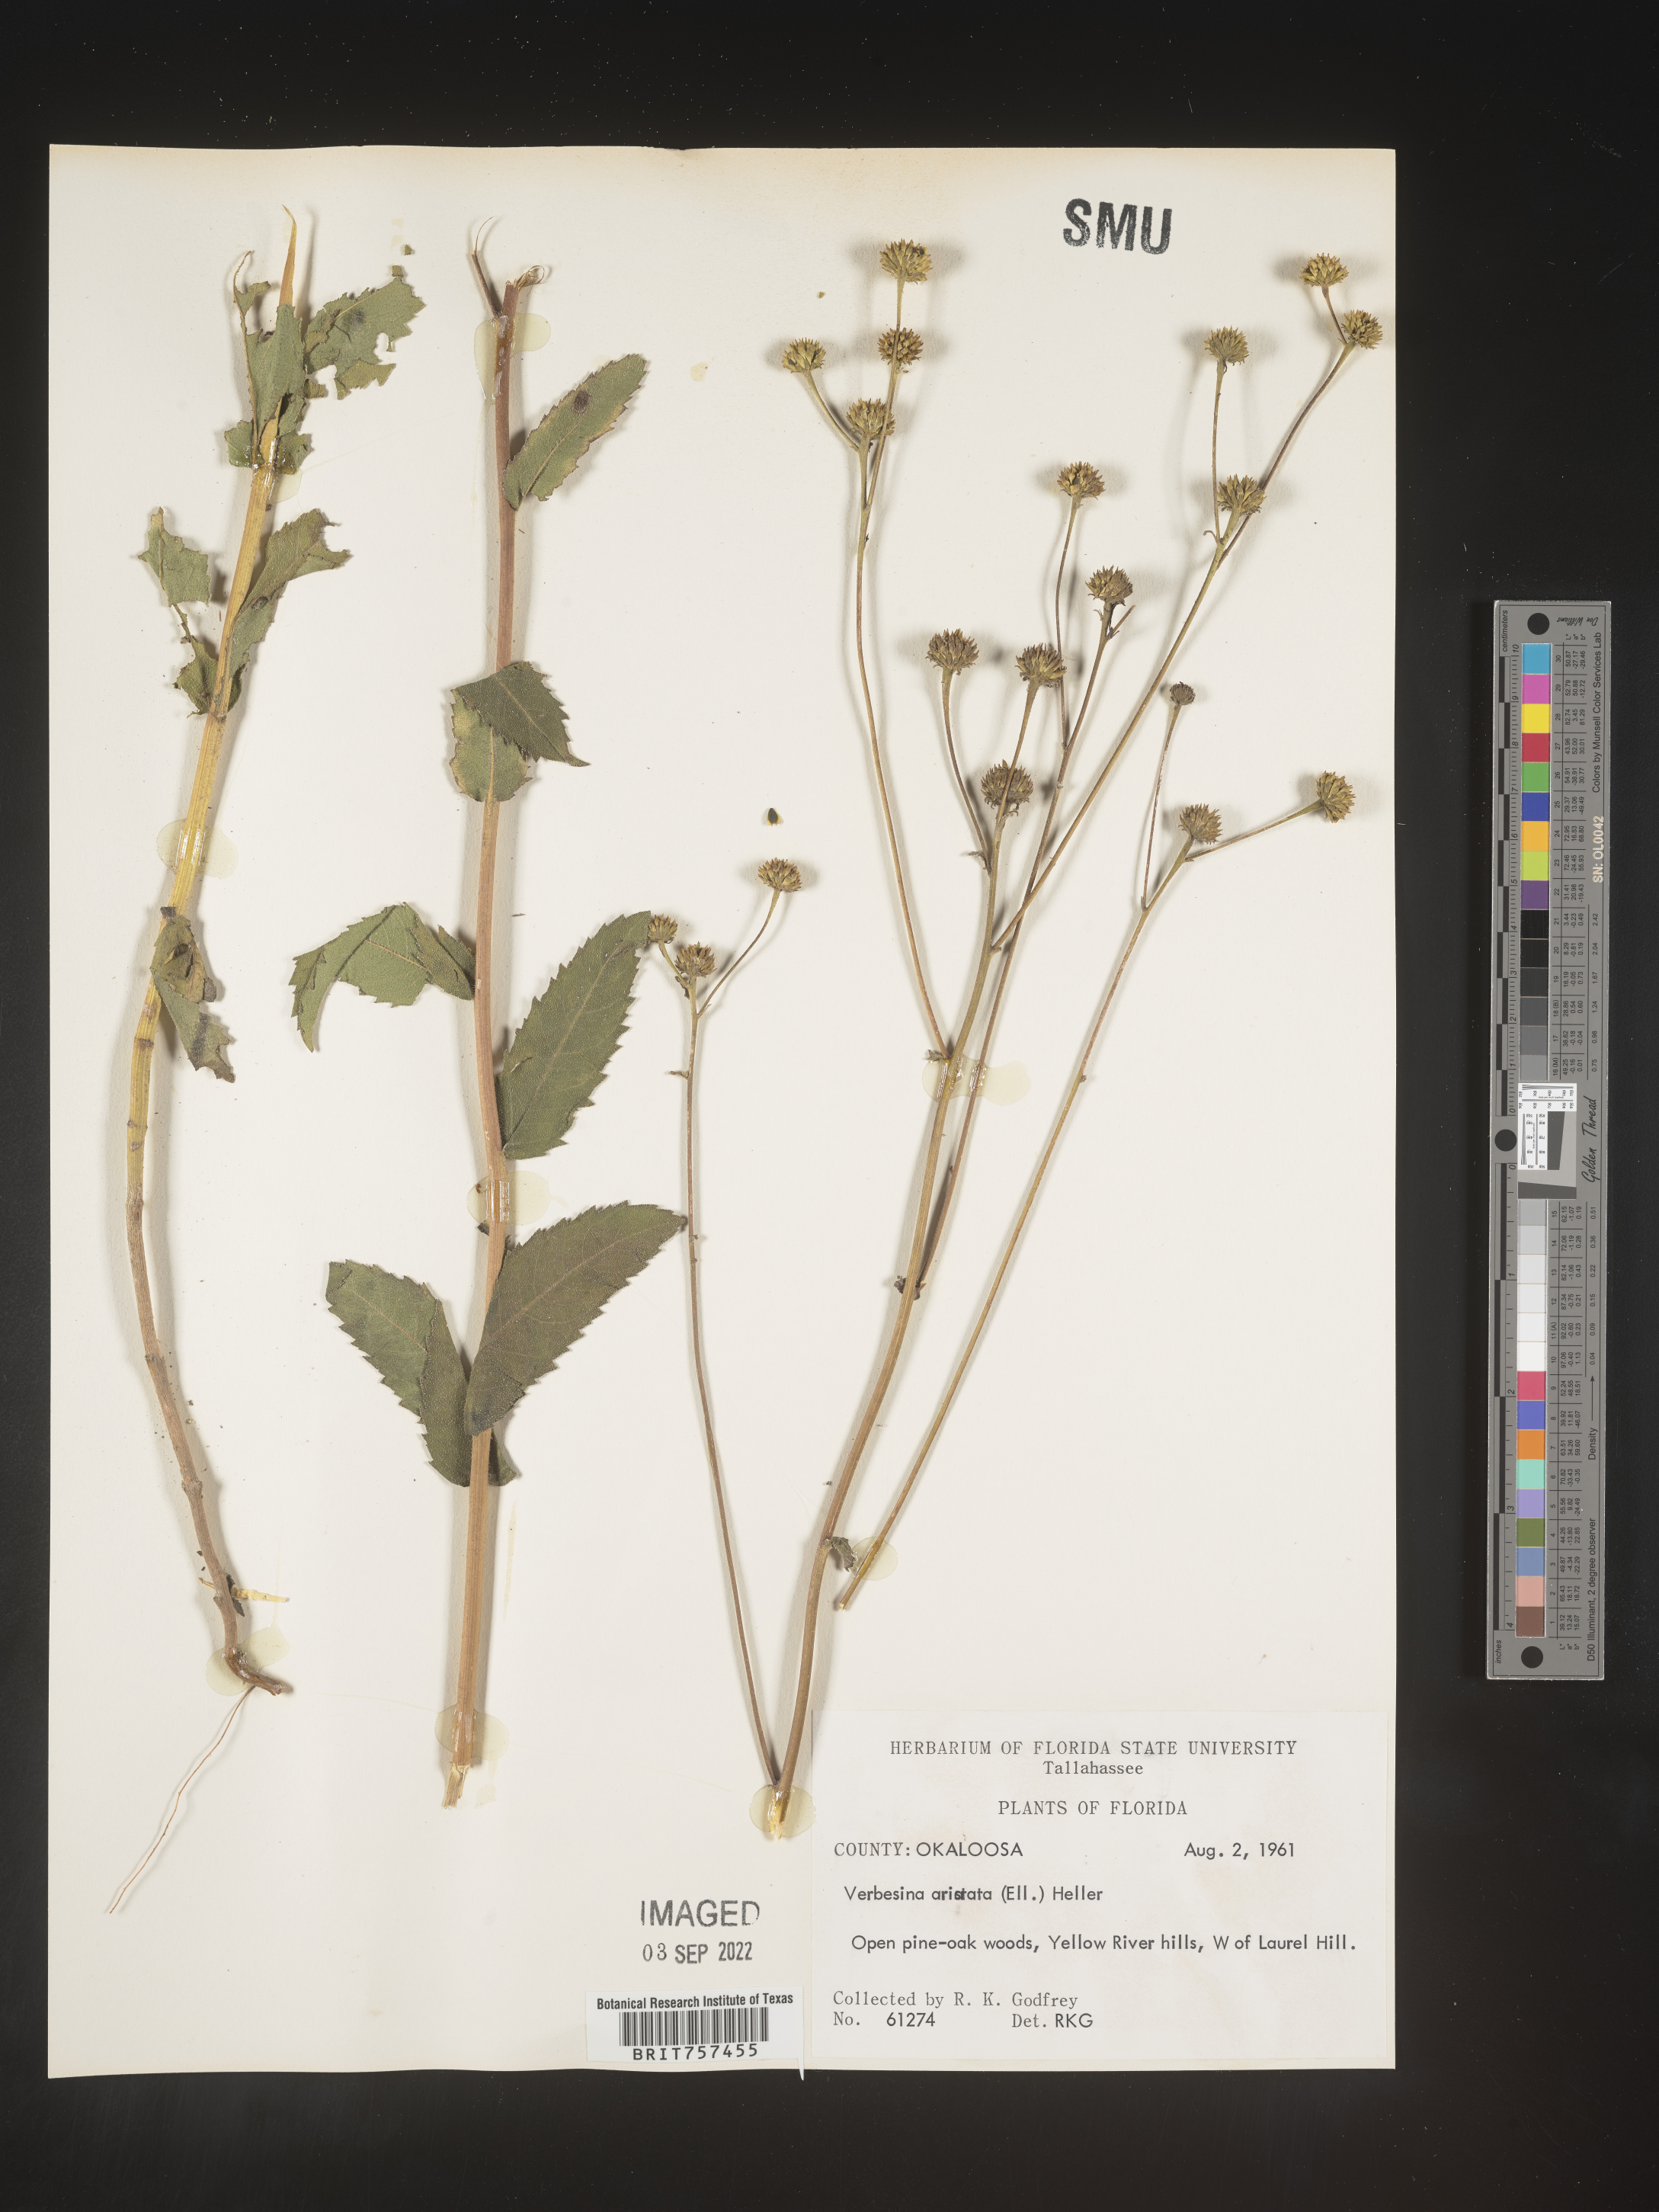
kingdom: Plantae
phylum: Tracheophyta
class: Magnoliopsida
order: Asterales
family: Asteraceae
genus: Verbesina
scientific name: Verbesina aristata
